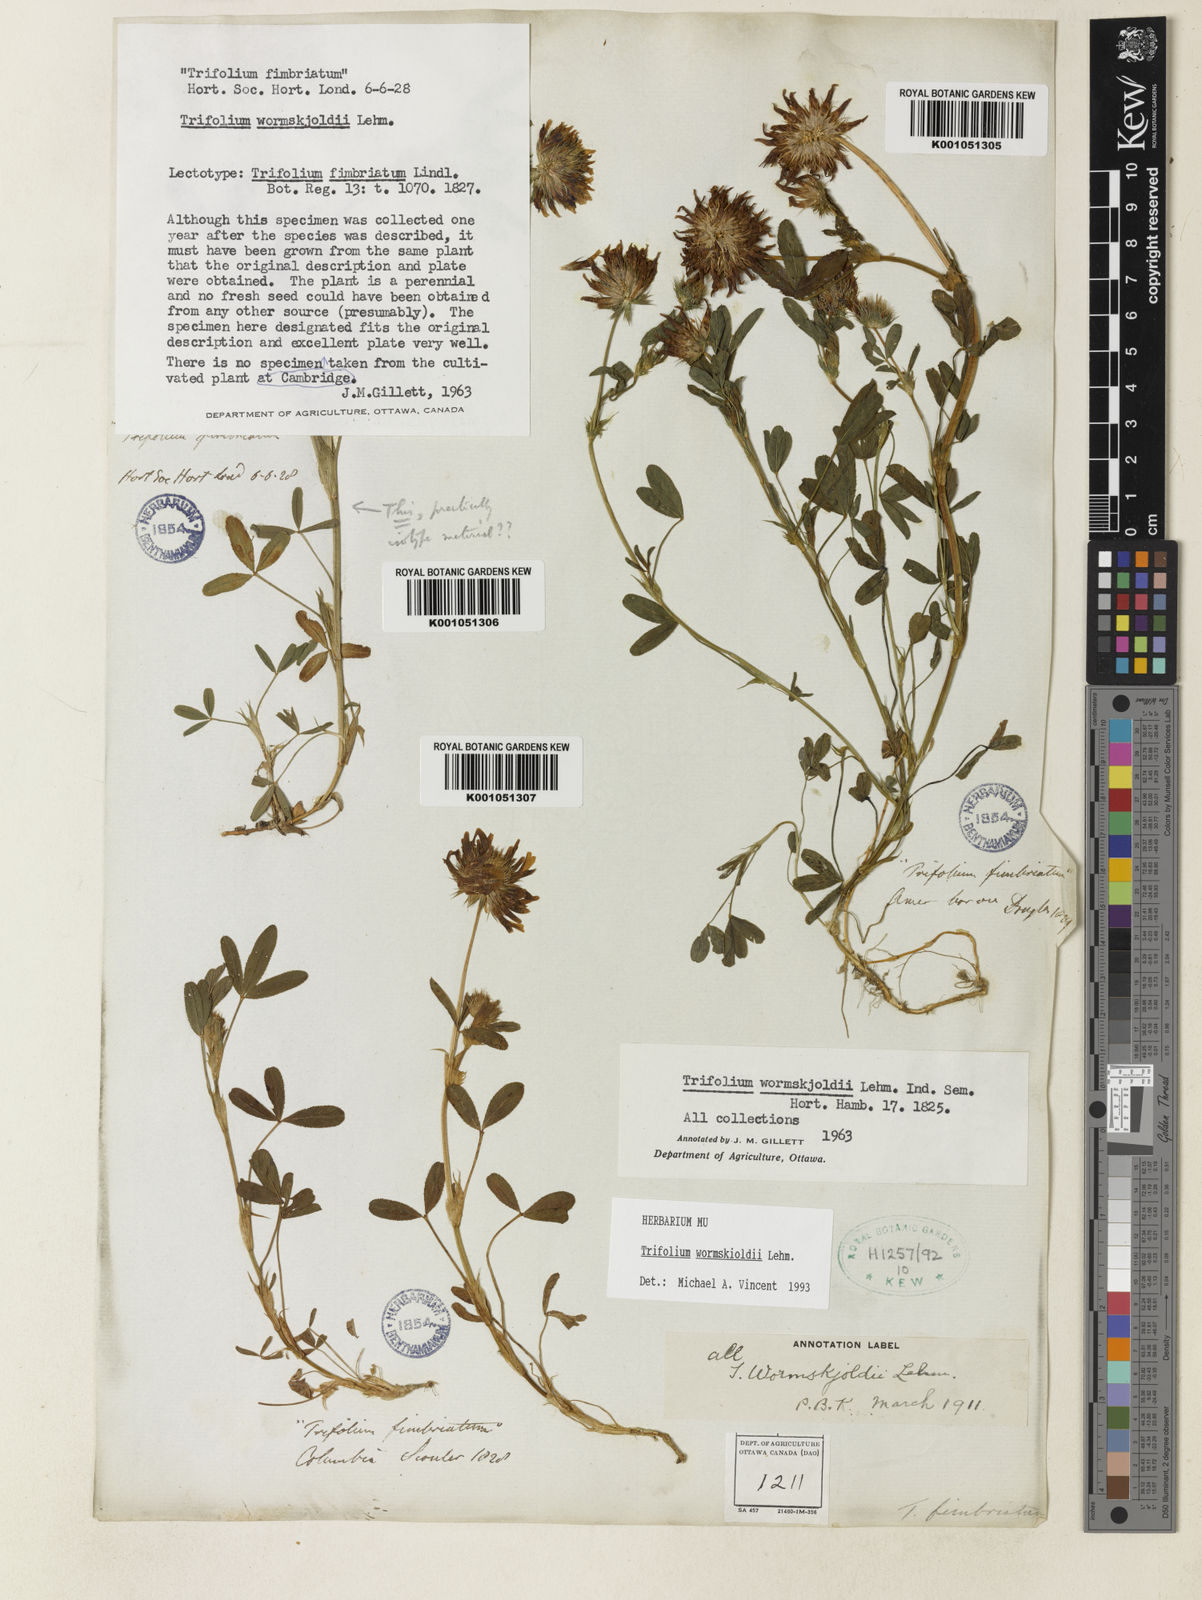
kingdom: Plantae
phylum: Tracheophyta
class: Magnoliopsida
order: Fabales
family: Fabaceae
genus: Trifolium
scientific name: Trifolium willdenovii
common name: Tomcat clover
